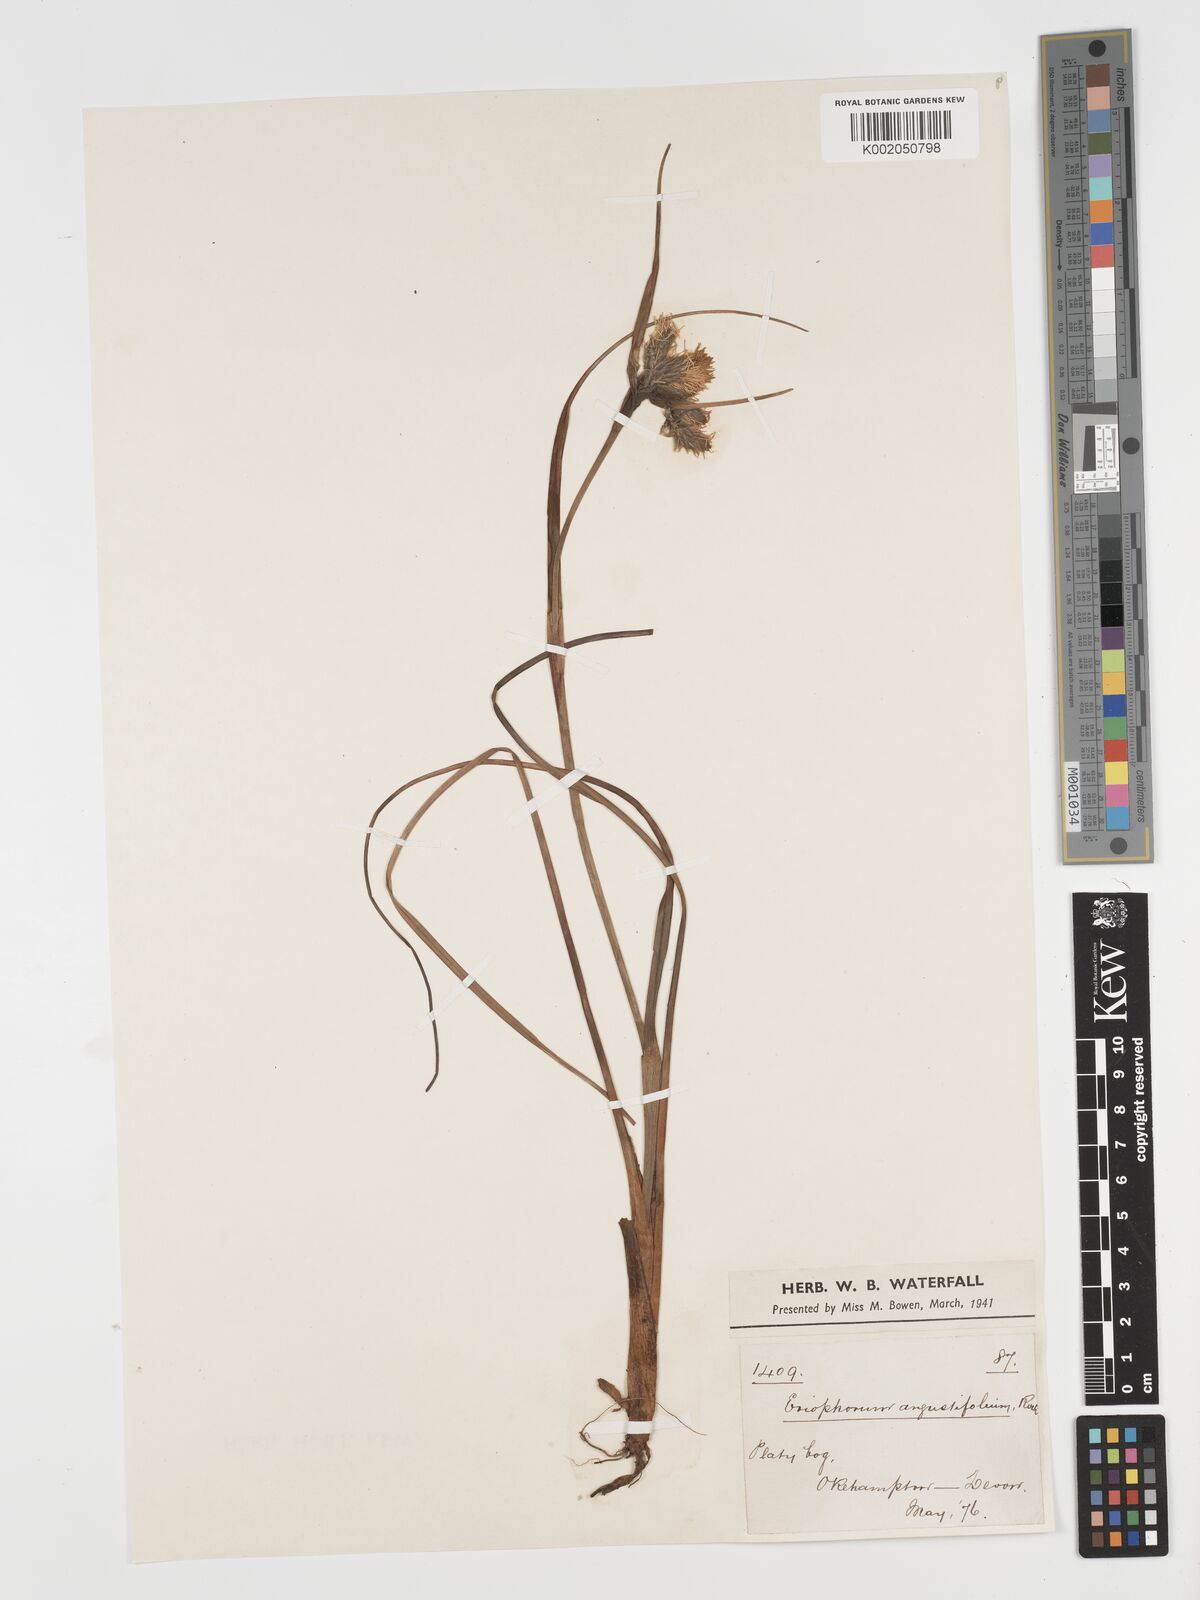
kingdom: Plantae
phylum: Tracheophyta
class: Liliopsida
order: Poales
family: Cyperaceae
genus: Eriophorum
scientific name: Eriophorum angustifolium
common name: Common cottongrass
